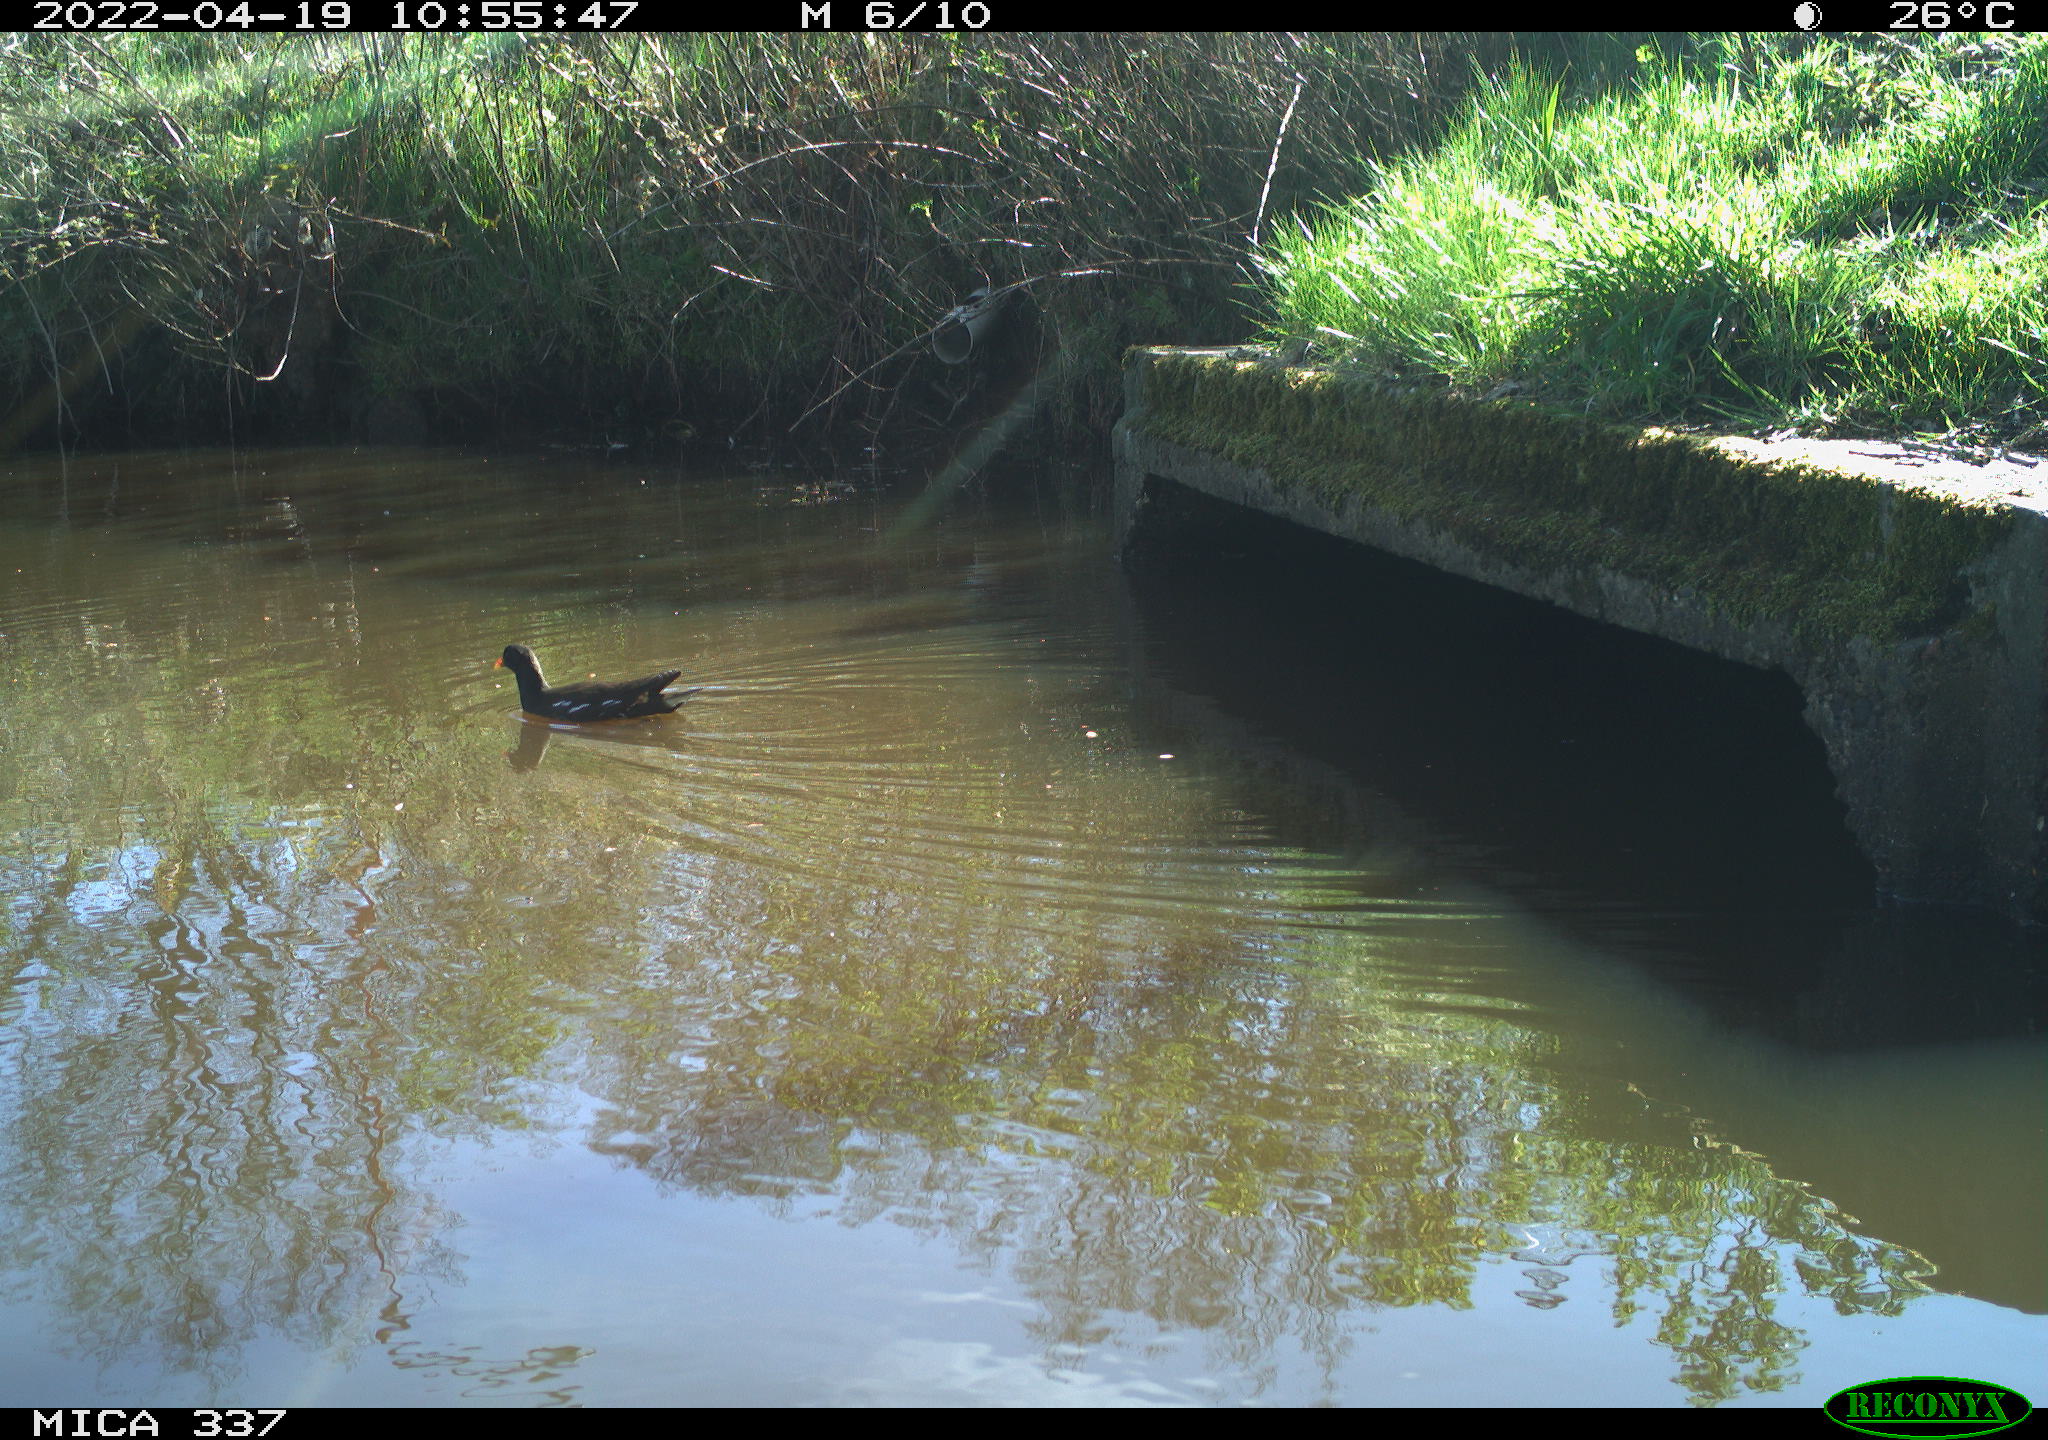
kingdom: Animalia
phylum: Chordata
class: Aves
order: Gruiformes
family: Rallidae
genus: Gallinula
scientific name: Gallinula chloropus
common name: Common moorhen
